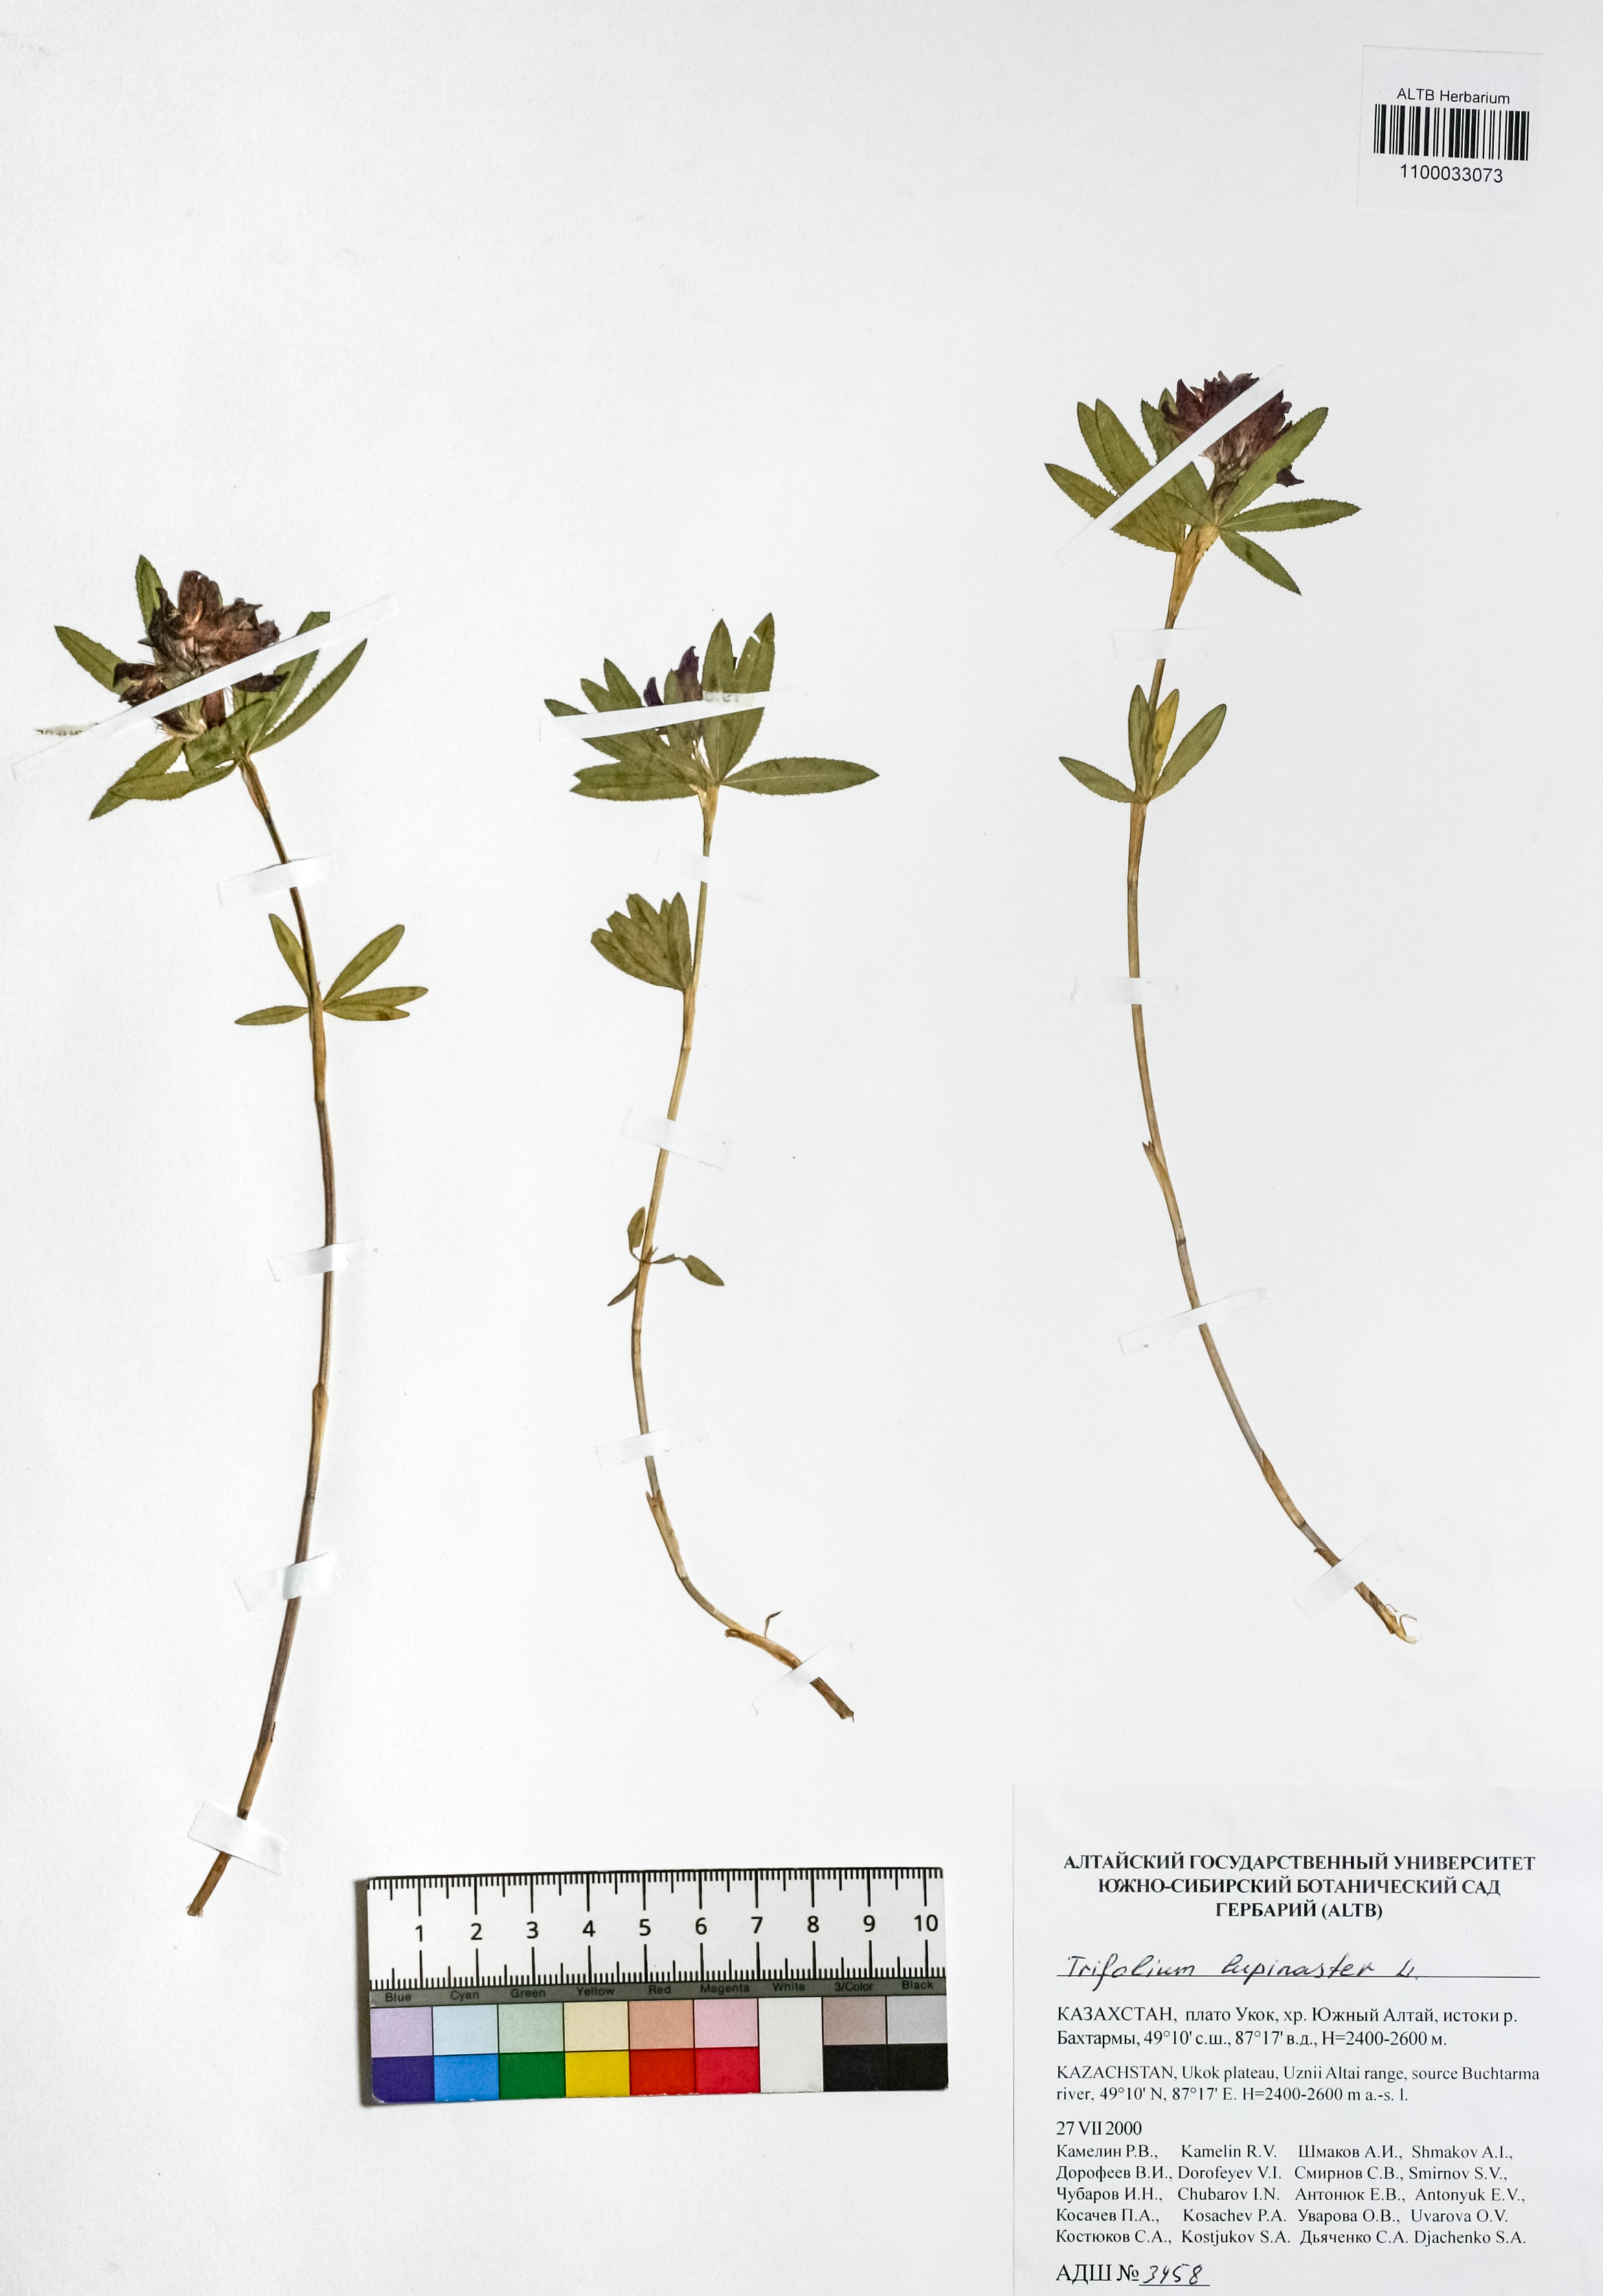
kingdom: Plantae
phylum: Tracheophyta
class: Magnoliopsida
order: Fabales
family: Fabaceae
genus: Trifolium
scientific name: Trifolium lupinaster
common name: Lupine clover
